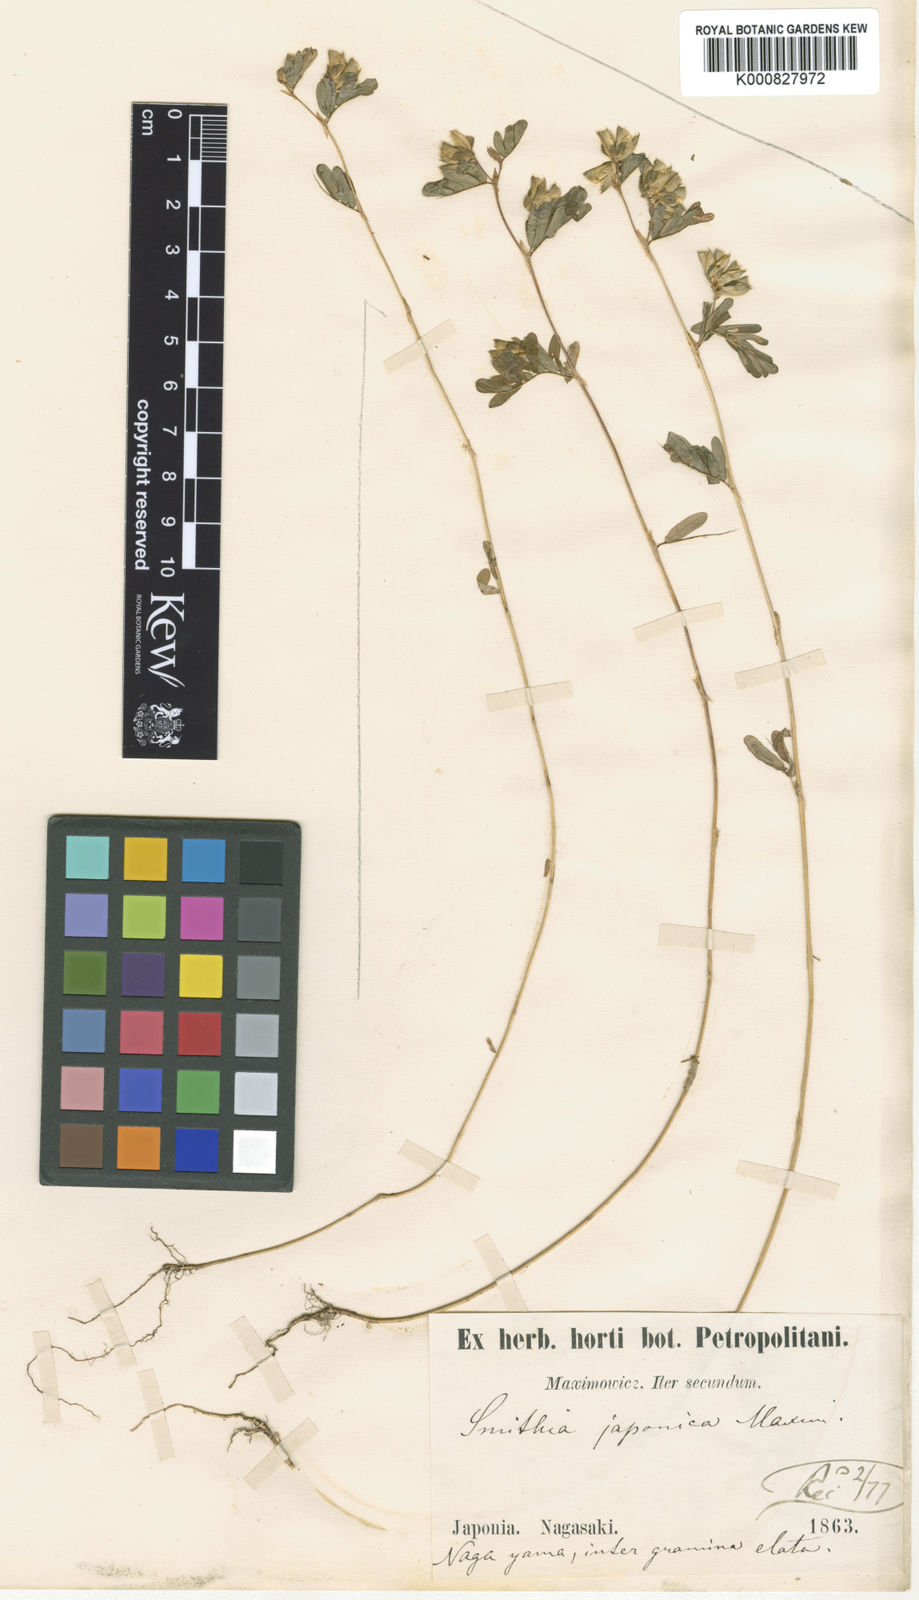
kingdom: Plantae
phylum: Tracheophyta
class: Magnoliopsida
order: Fabales
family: Fabaceae
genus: Smithia
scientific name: Smithia ciliata
